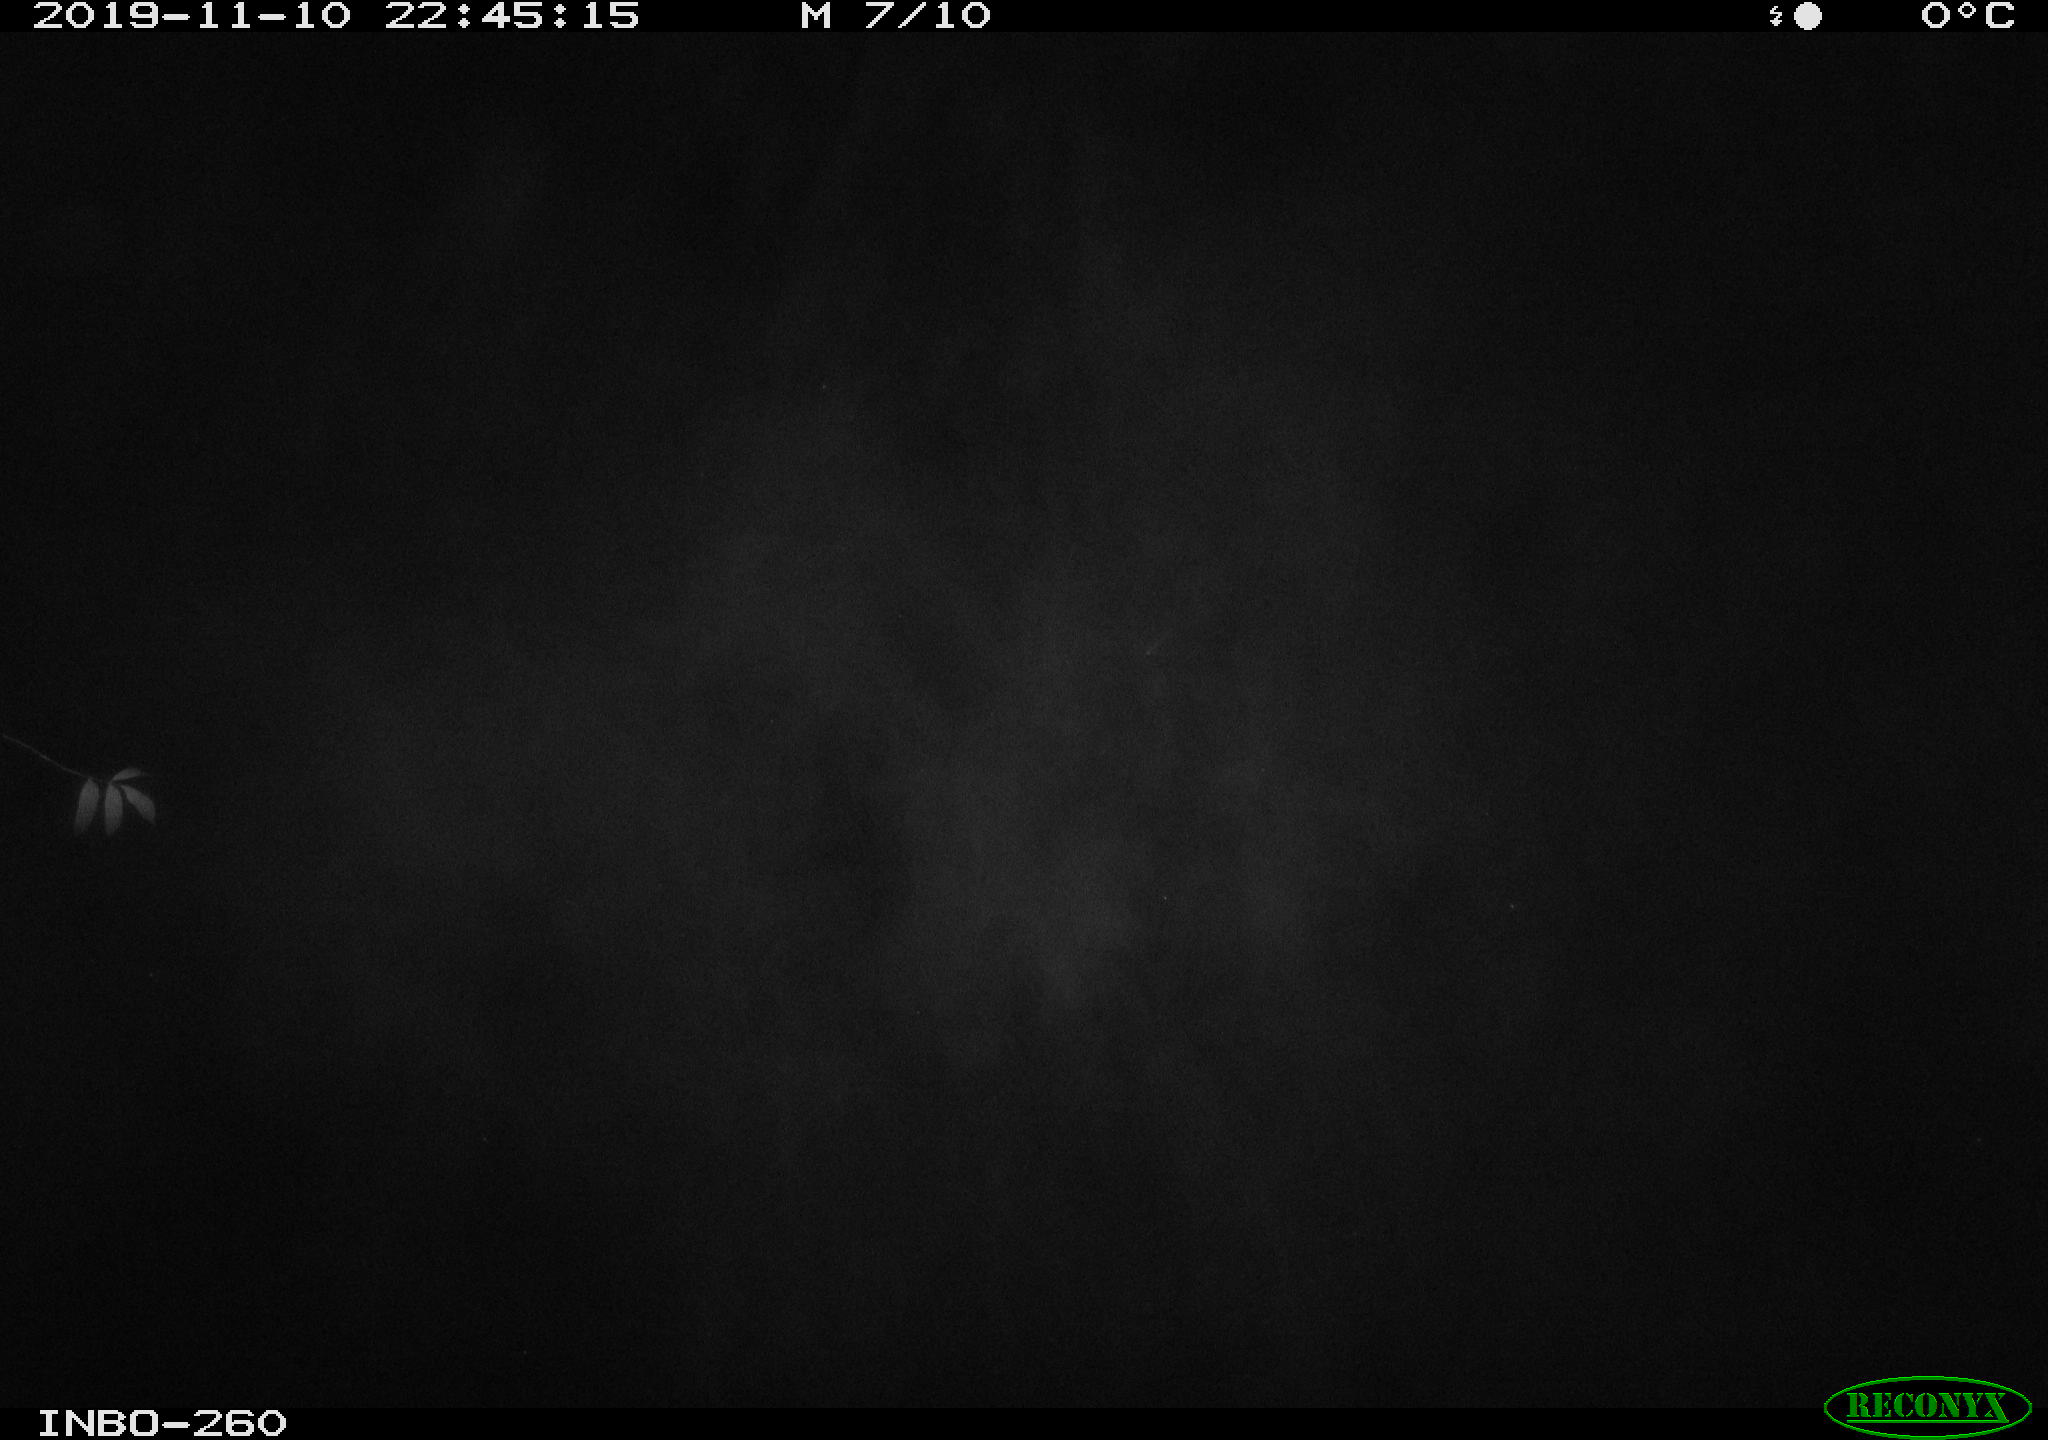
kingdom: Animalia
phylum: Chordata
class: Aves
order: Anseriformes
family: Anatidae
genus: Anas
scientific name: Anas platyrhynchos
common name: Mallard
